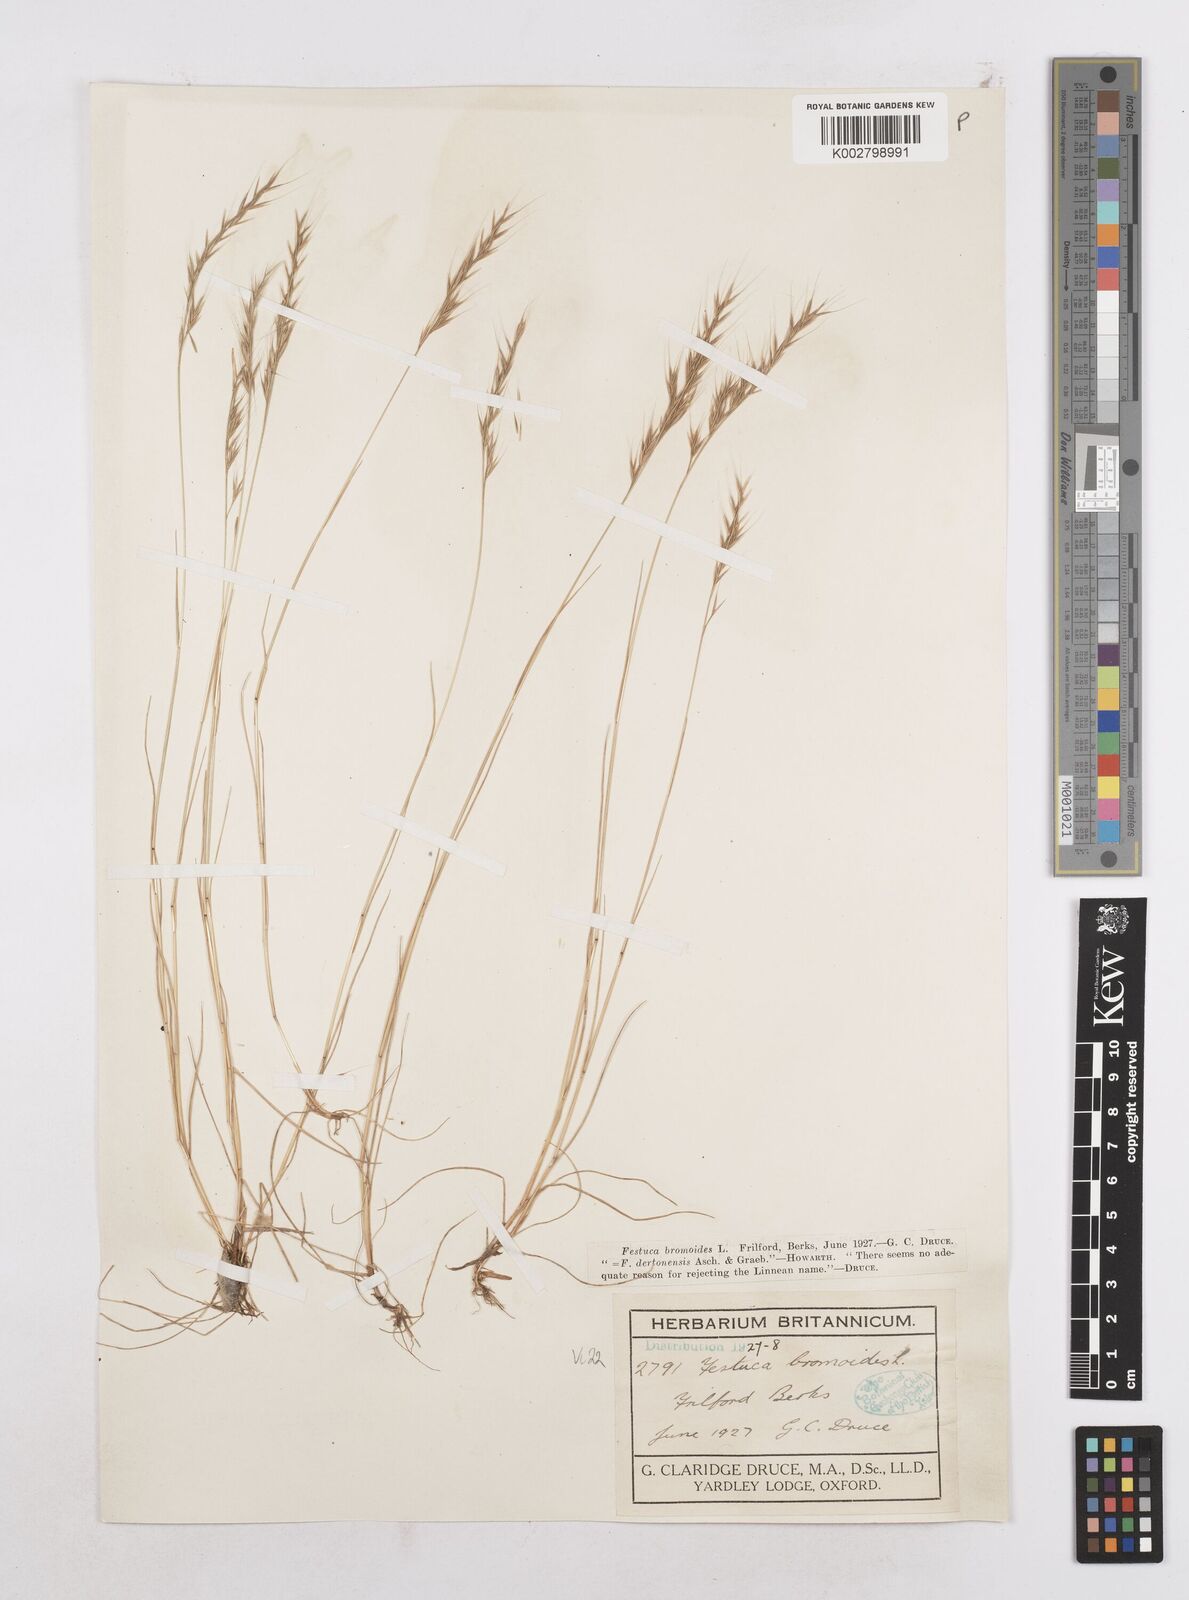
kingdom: Plantae
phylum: Tracheophyta
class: Liliopsida
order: Poales
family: Poaceae
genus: Festuca
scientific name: Festuca bromoides
